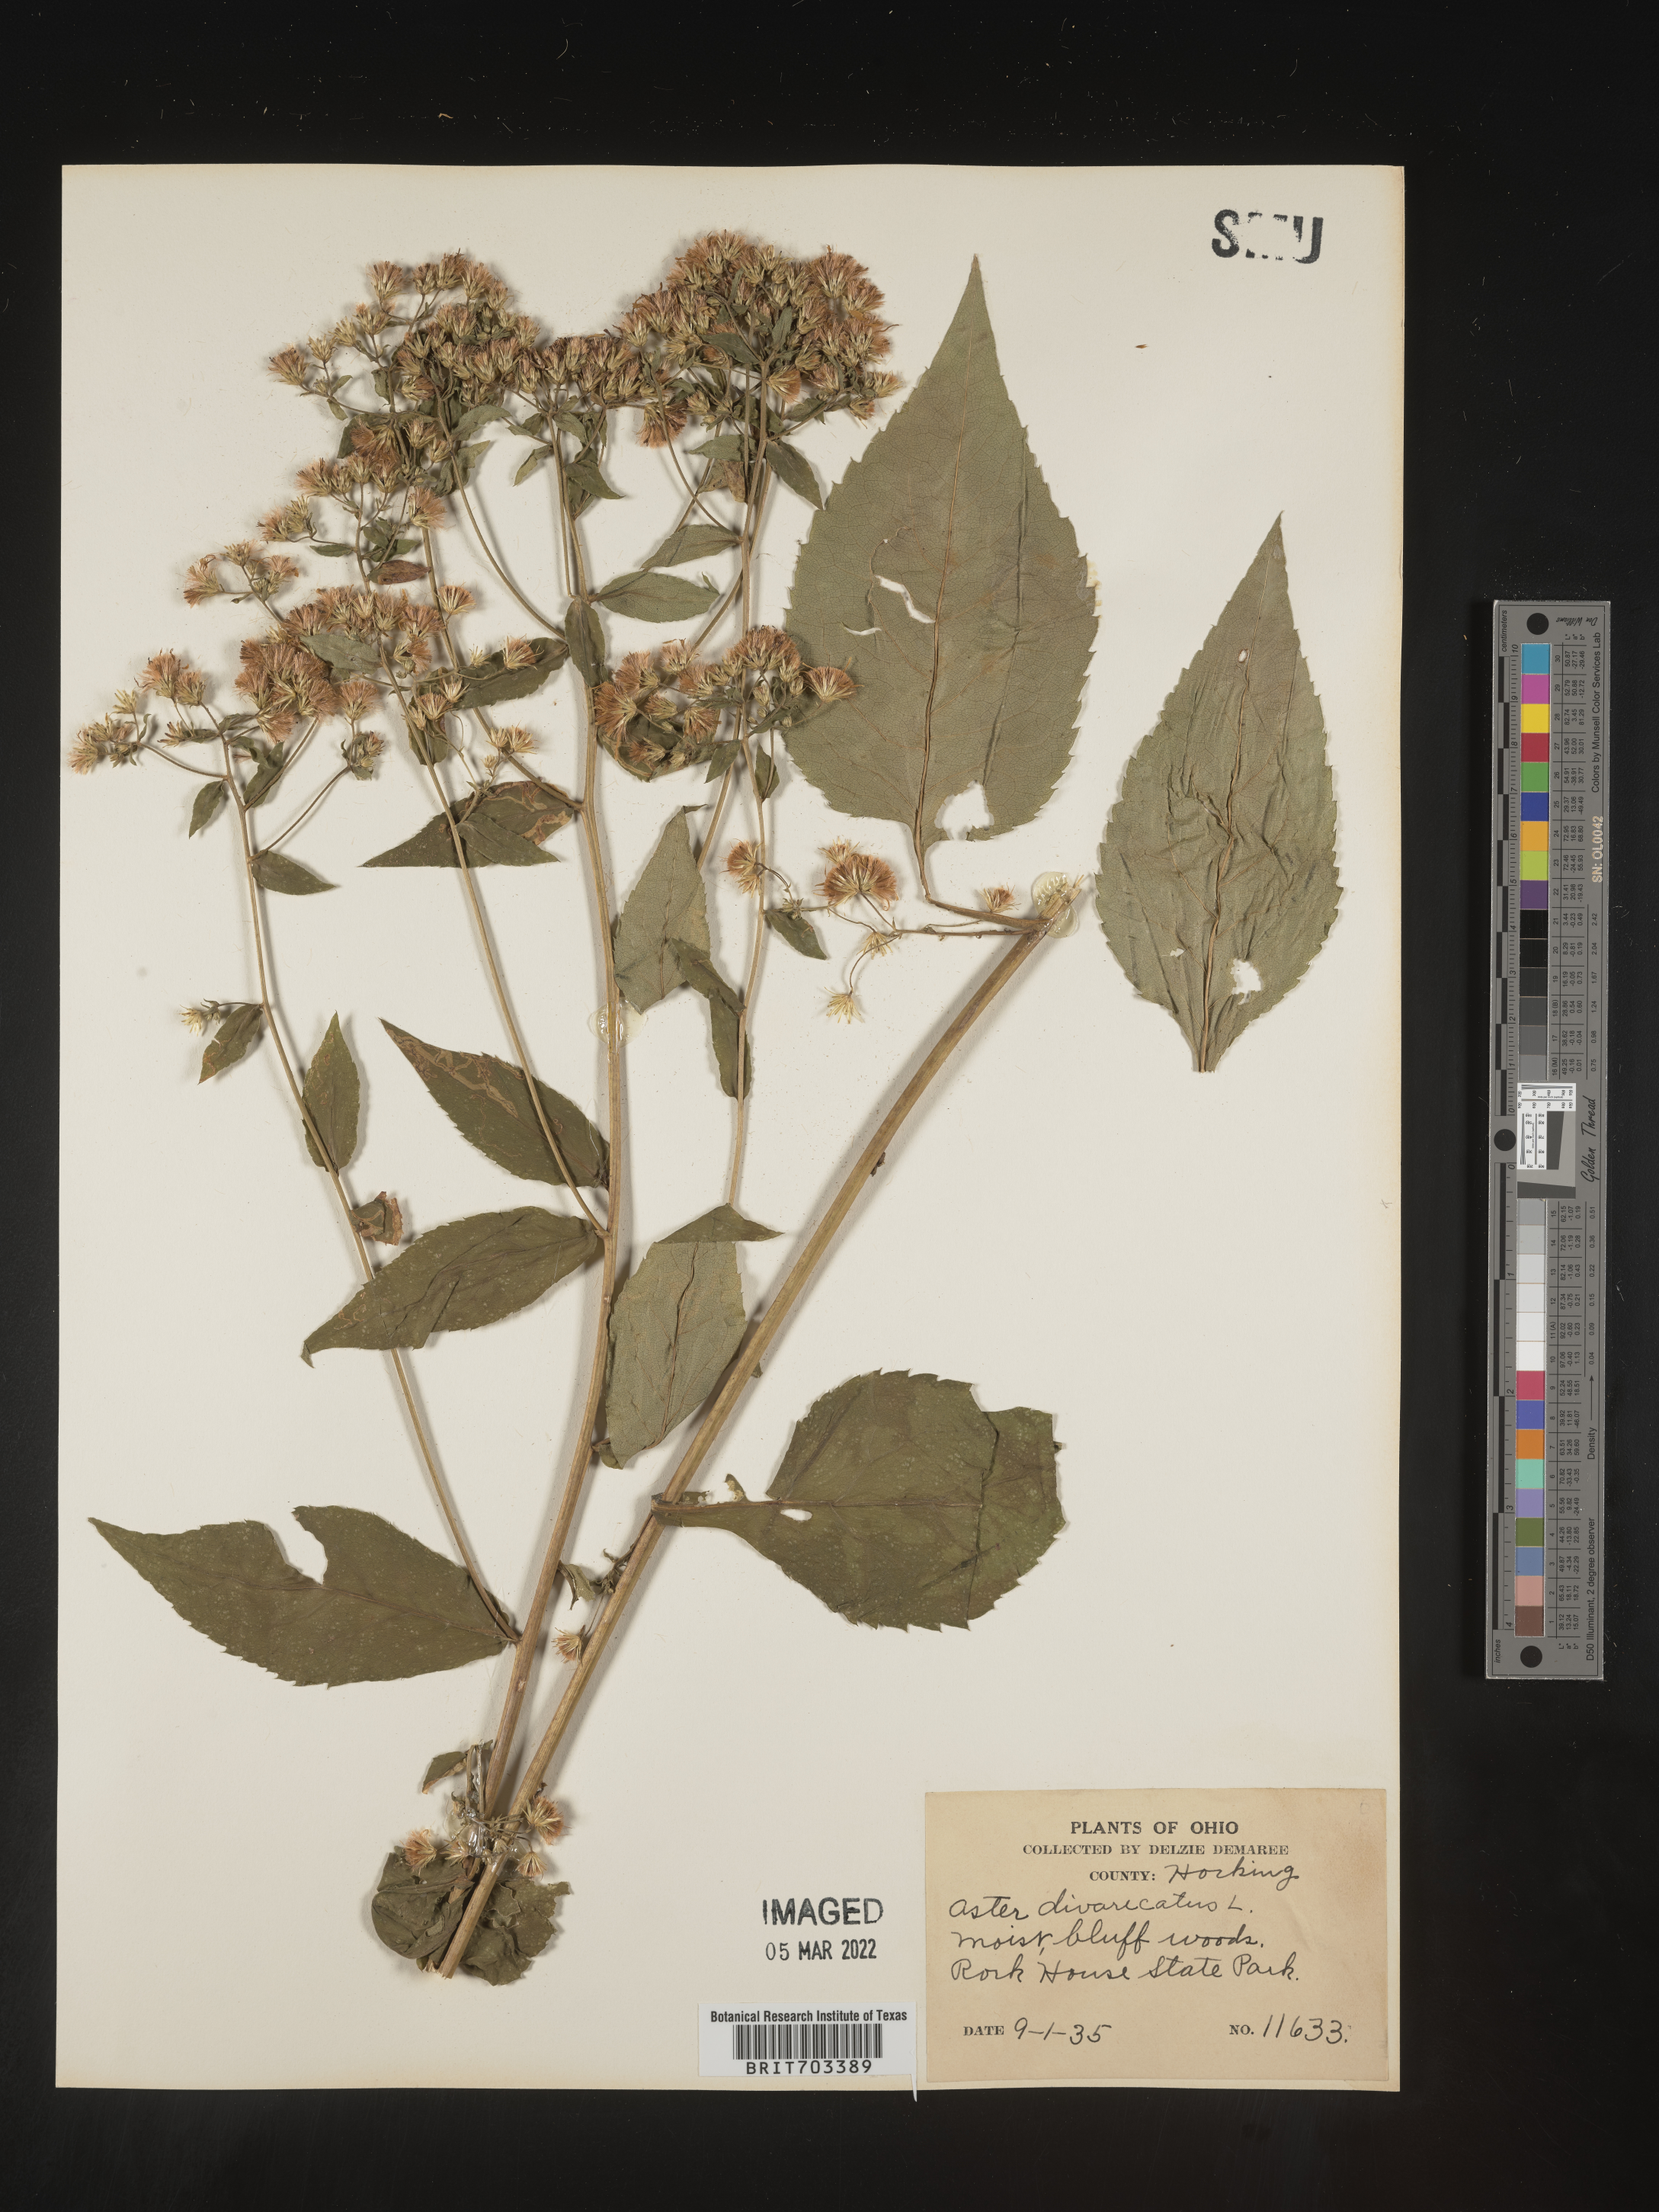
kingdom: Plantae
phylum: Tracheophyta
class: Magnoliopsida
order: Asterales
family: Asteraceae
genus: Eurybia
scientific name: Eurybia divaricata
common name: White wood aster
